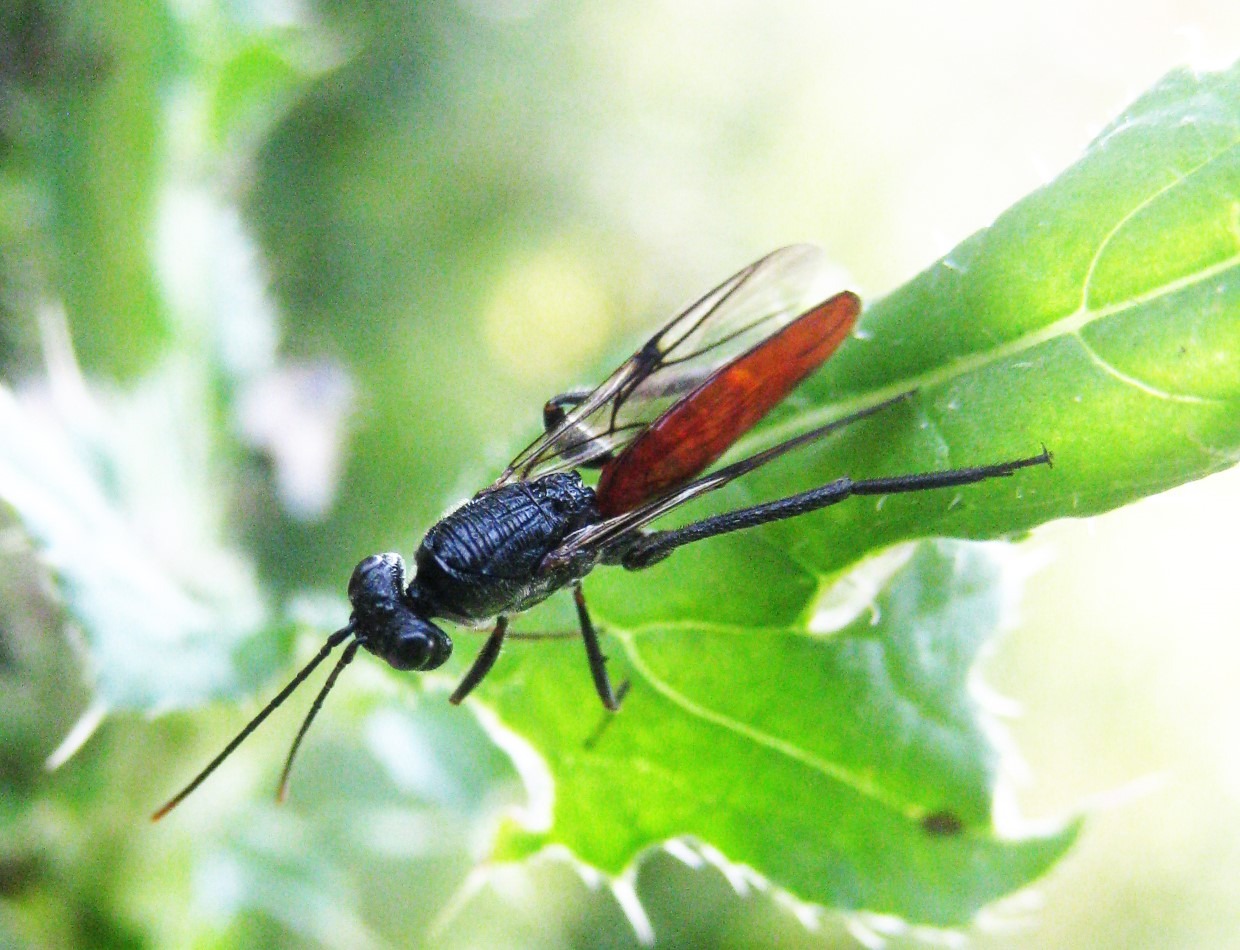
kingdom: Animalia
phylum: Arthropoda
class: Insecta
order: Hymenoptera
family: Ibaliidae
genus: Ibalia
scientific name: Ibalia leucospoides
